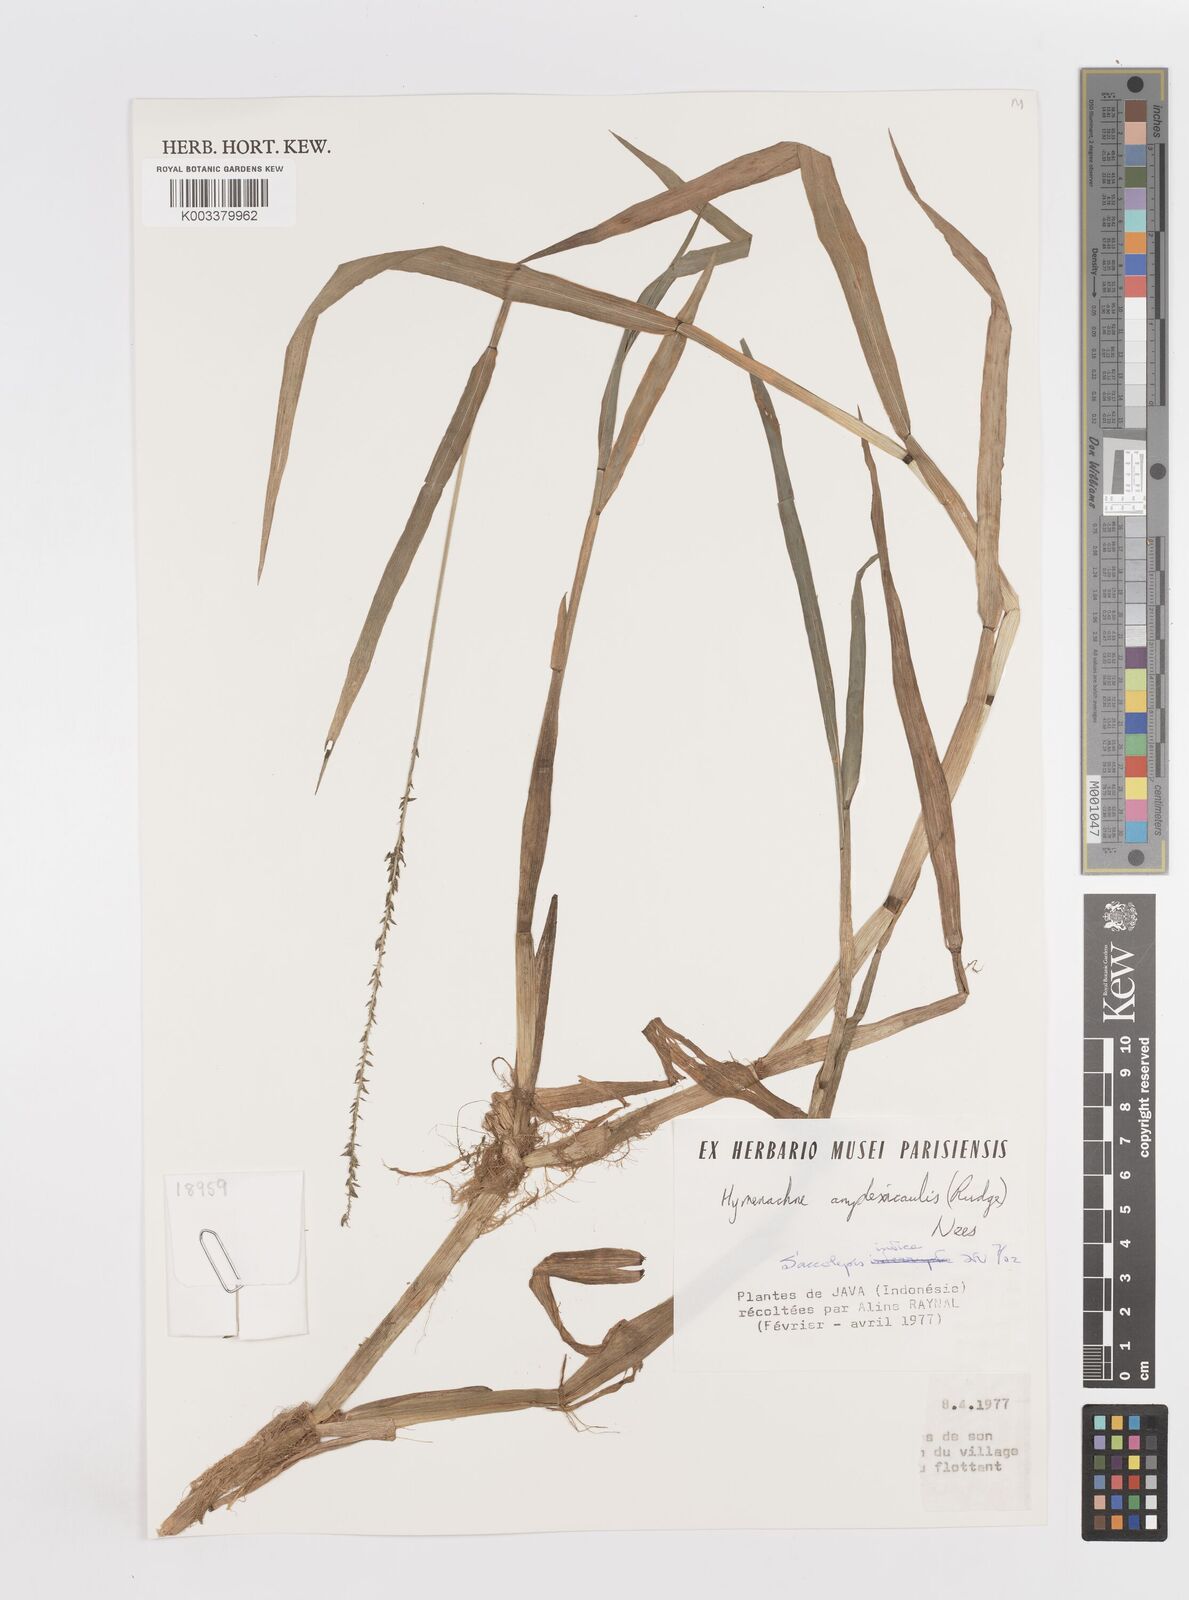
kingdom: Plantae
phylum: Tracheophyta
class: Liliopsida
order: Poales
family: Poaceae
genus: Sacciolepis
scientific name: Sacciolepis indica
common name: Glenwoodgrass
